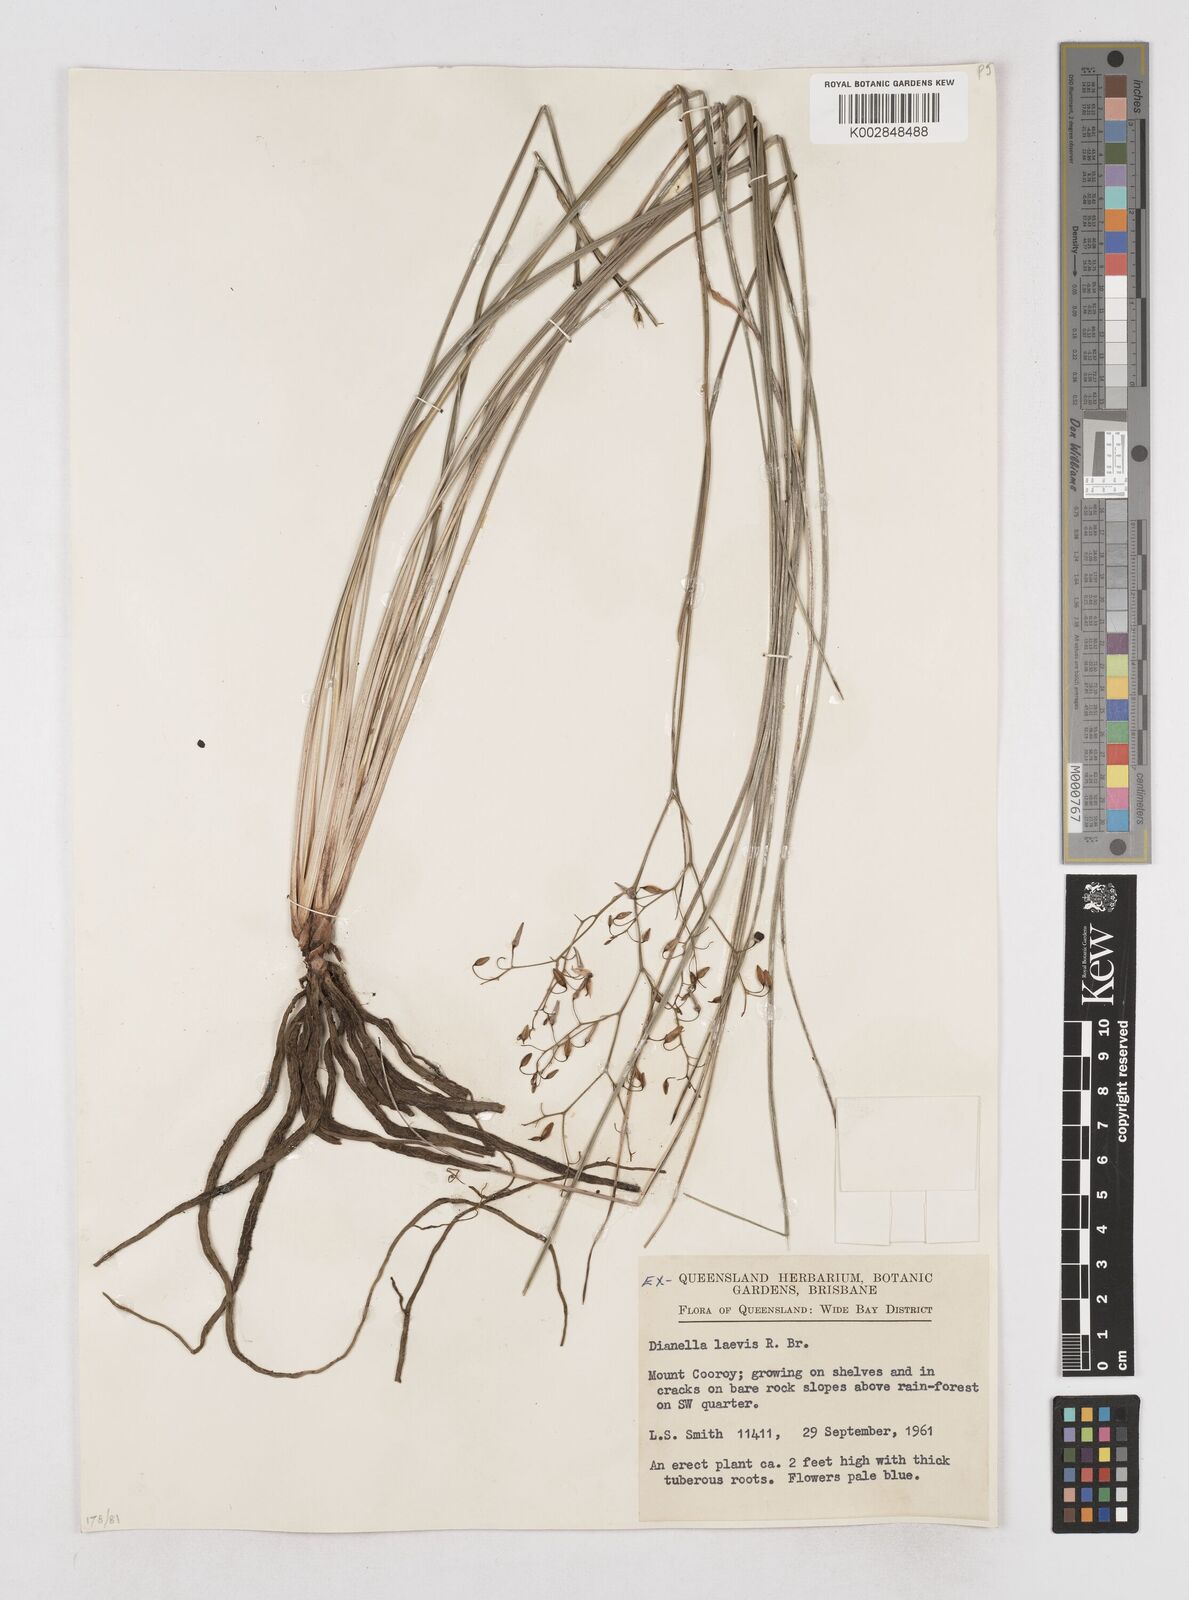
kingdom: Plantae
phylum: Tracheophyta
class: Liliopsida
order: Asparagales
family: Asphodelaceae
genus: Dianella
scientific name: Dianella longifolia
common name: Blue flax-lily
